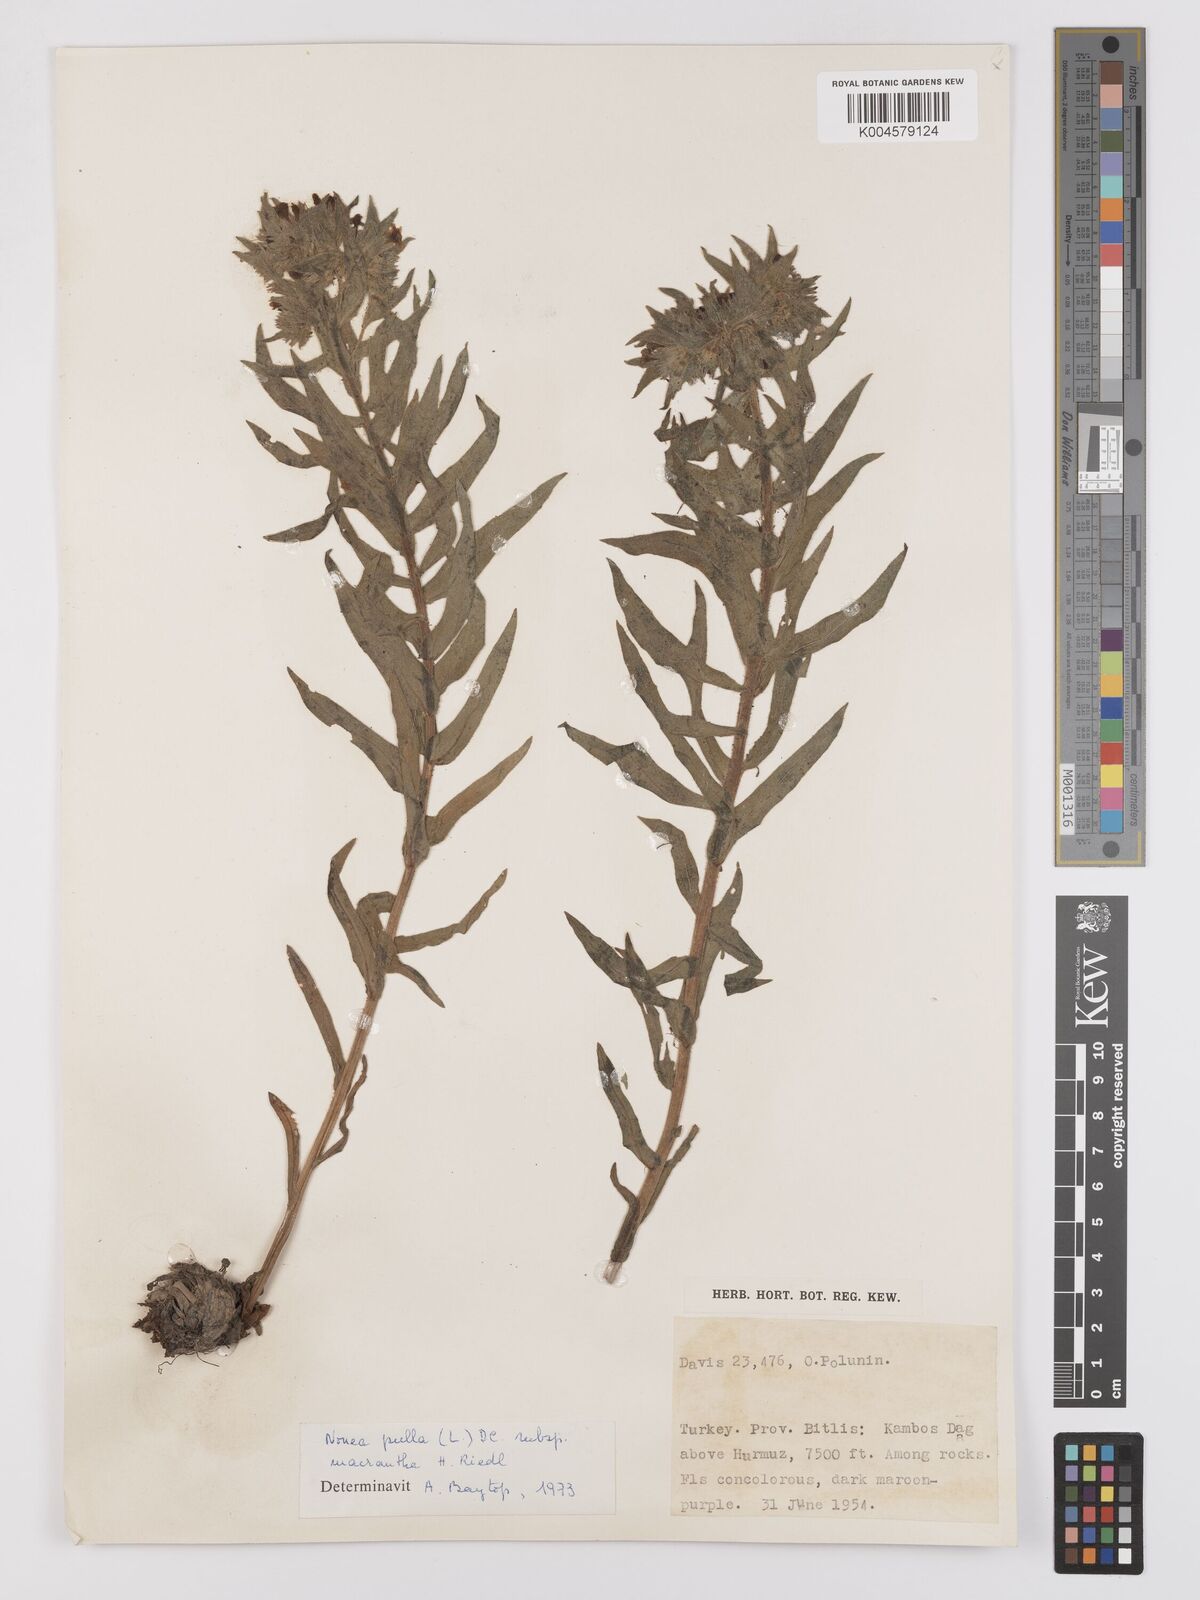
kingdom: Plantae
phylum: Tracheophyta
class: Magnoliopsida
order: Boraginales
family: Boraginaceae
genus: Nonea
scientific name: Nonea pulla
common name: Brown nonea
